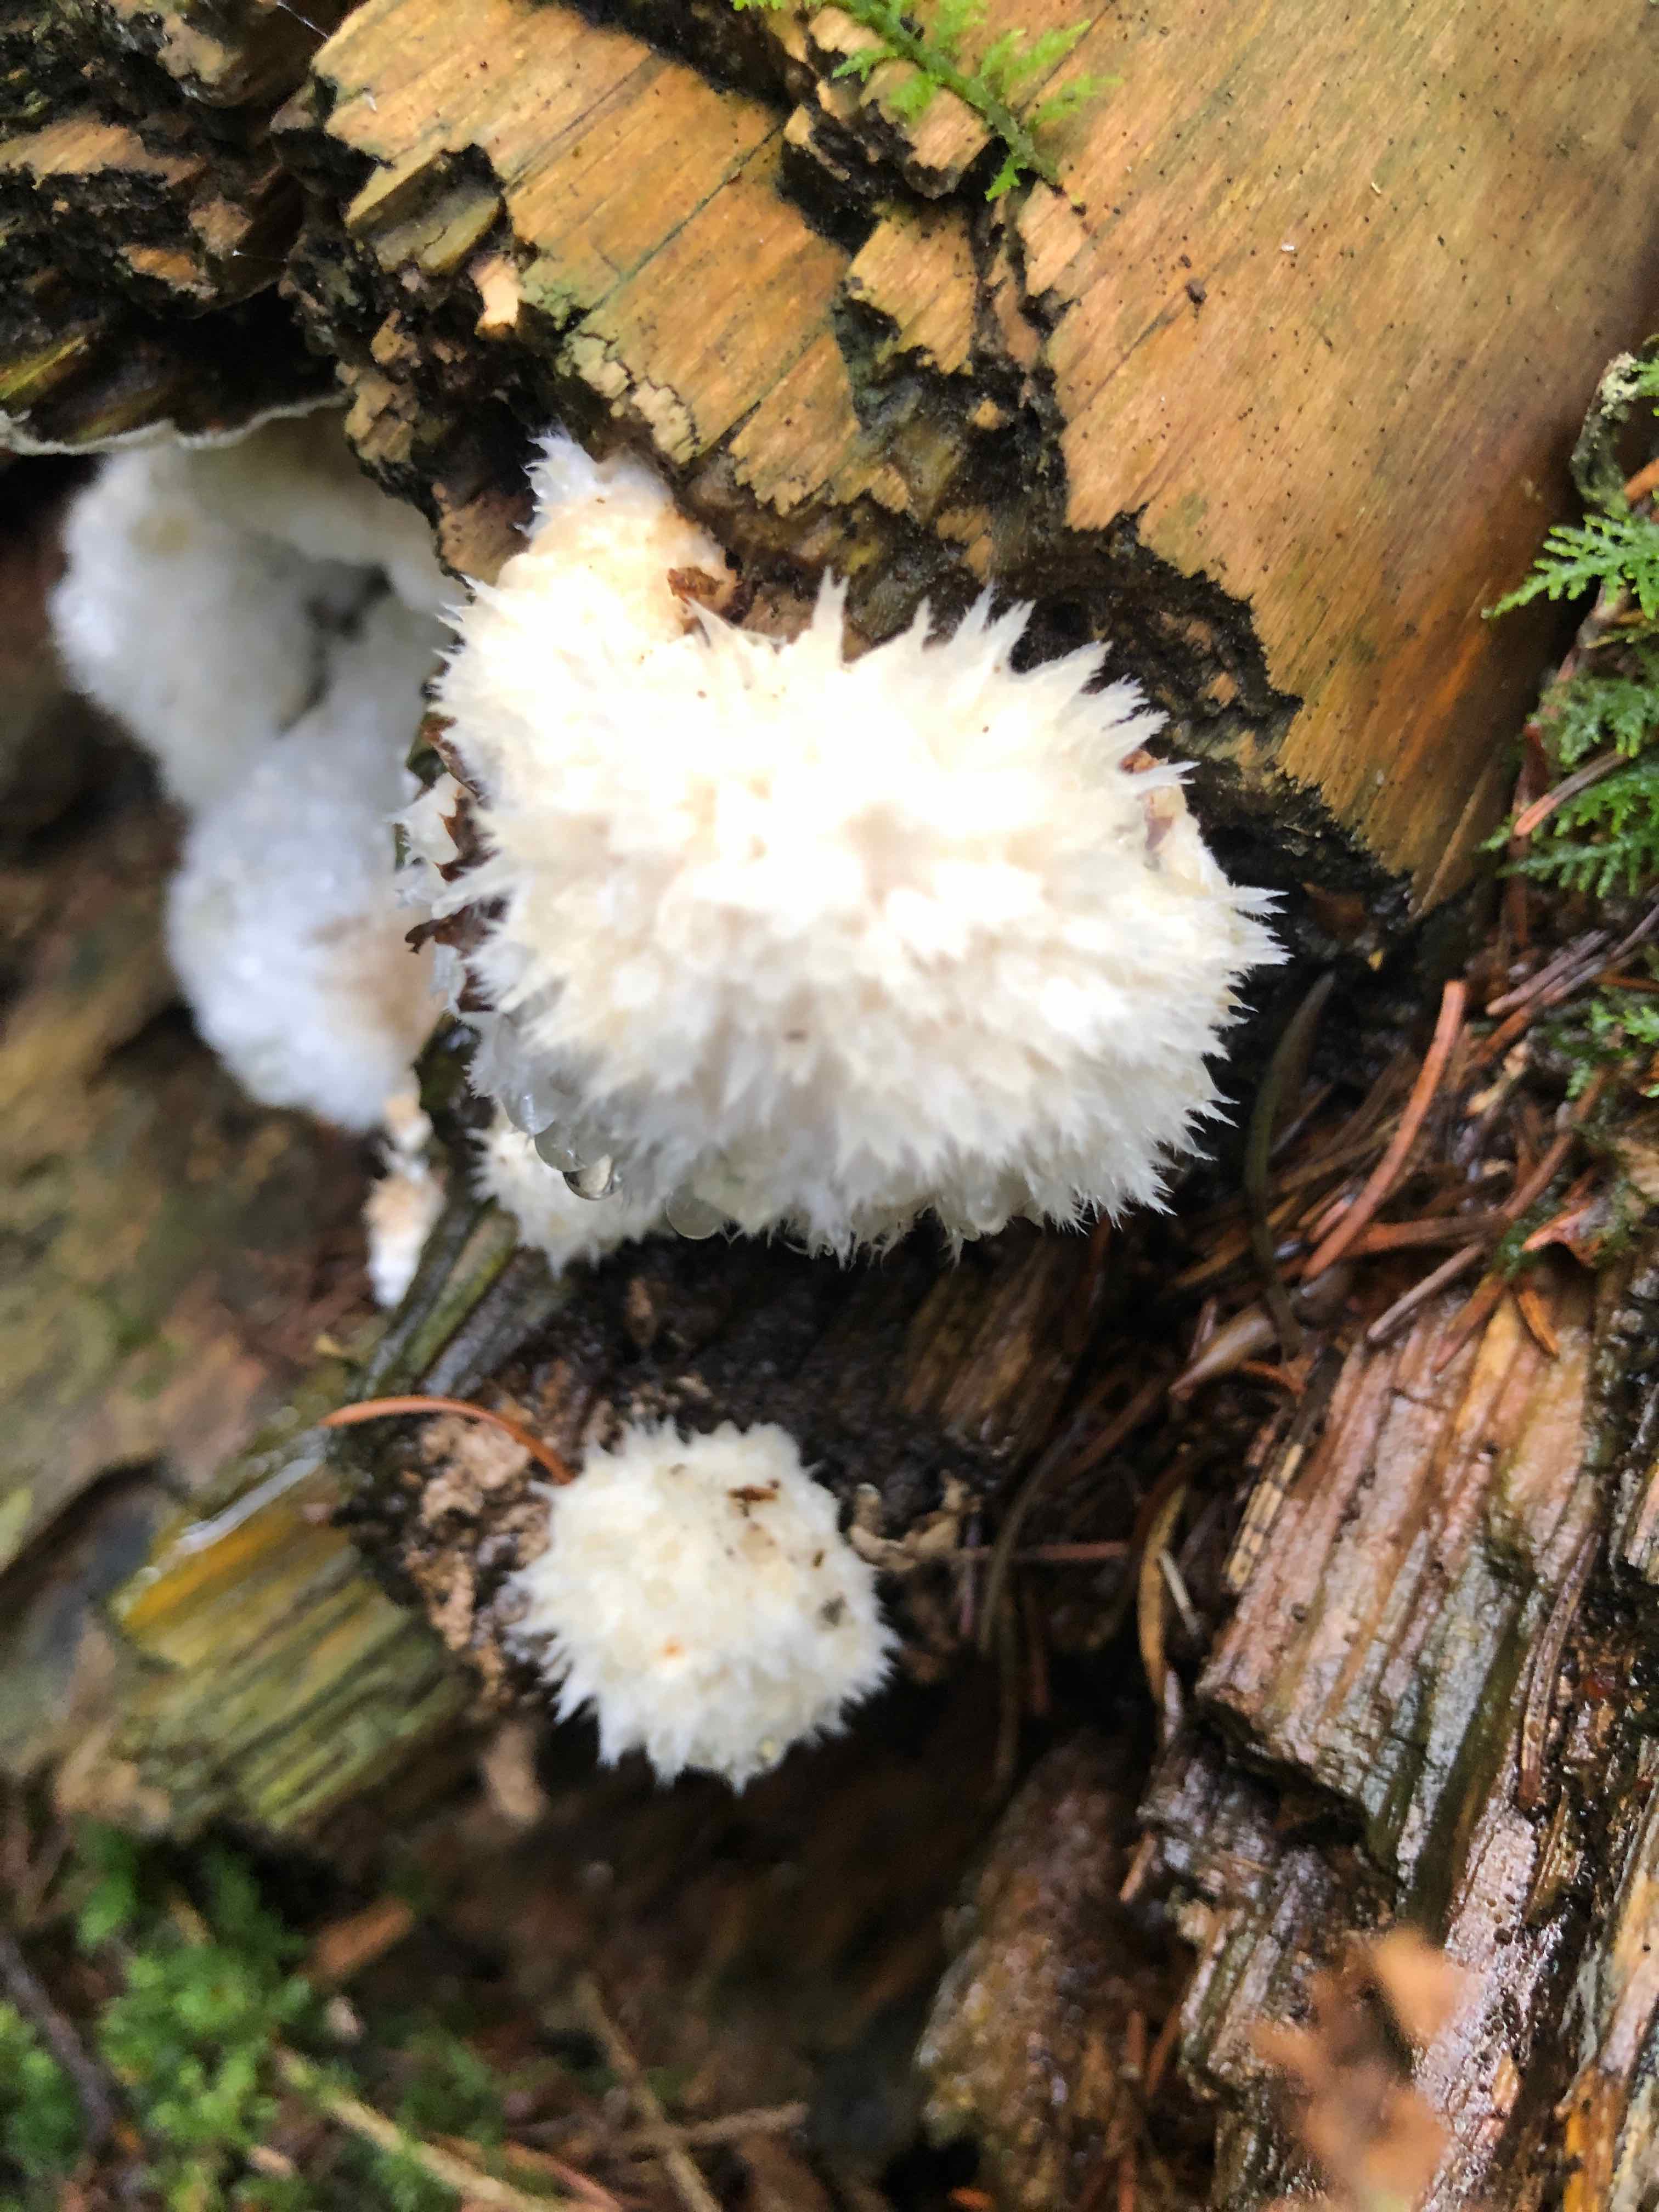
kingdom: Fungi
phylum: Basidiomycota
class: Agaricomycetes
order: Polyporales
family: Dacryobolaceae
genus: Postia
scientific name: Postia ptychogaster
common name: støvende kødporesvamp
